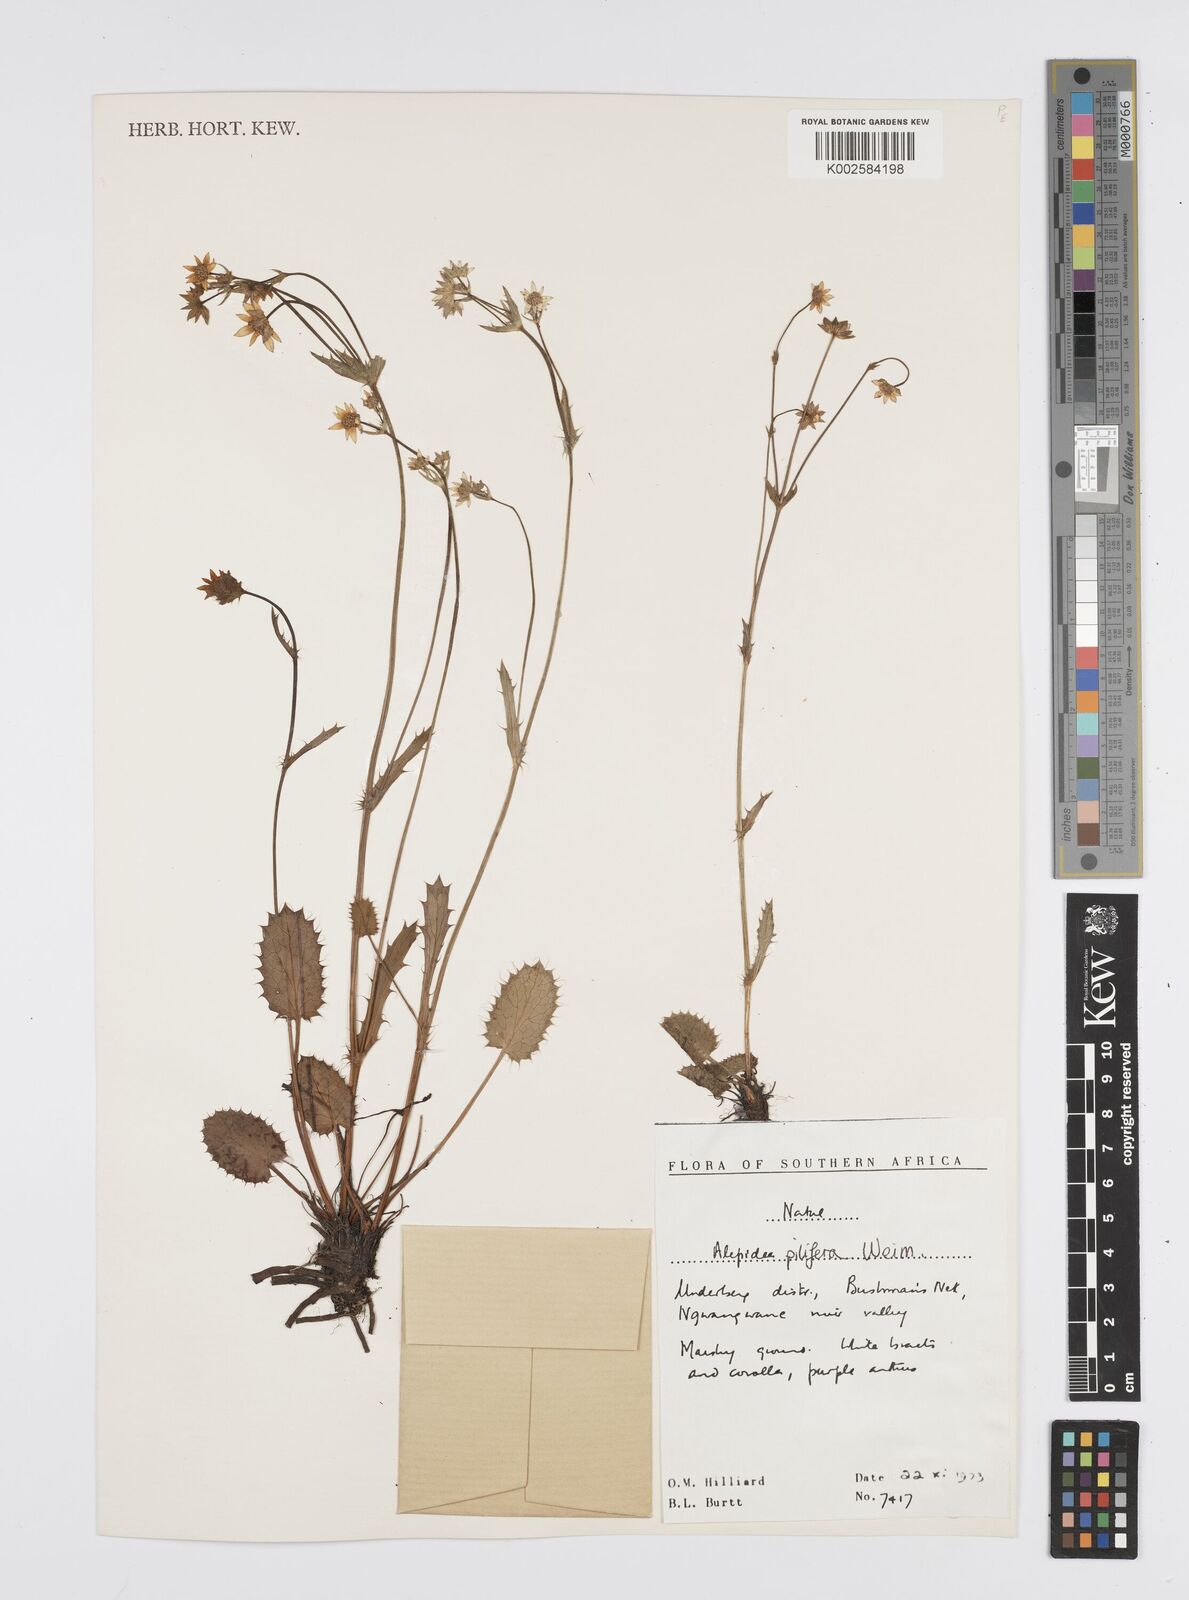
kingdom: Plantae
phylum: Tracheophyta
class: Magnoliopsida
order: Apiales
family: Apiaceae
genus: Alepidea
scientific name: Alepidea pilifera
